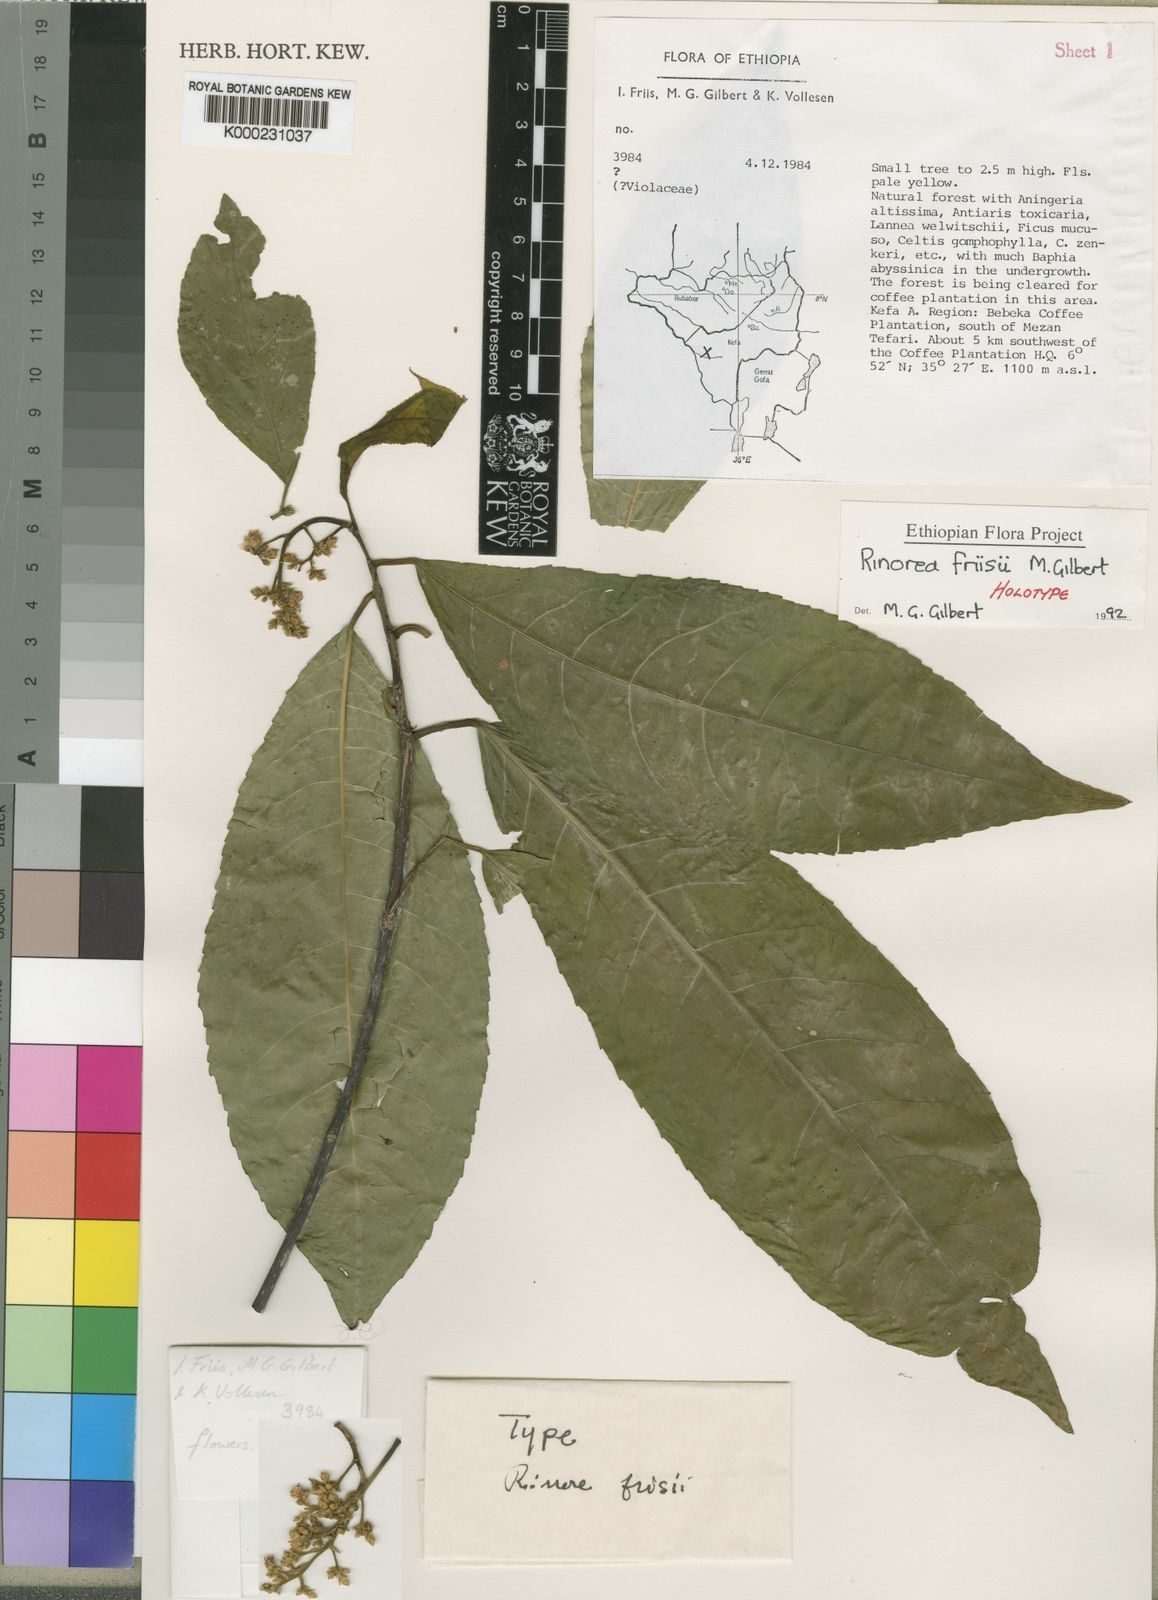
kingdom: Plantae
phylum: Tracheophyta
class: Magnoliopsida
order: Malpighiales
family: Violaceae
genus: Rinorea
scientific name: Rinorea friisii
